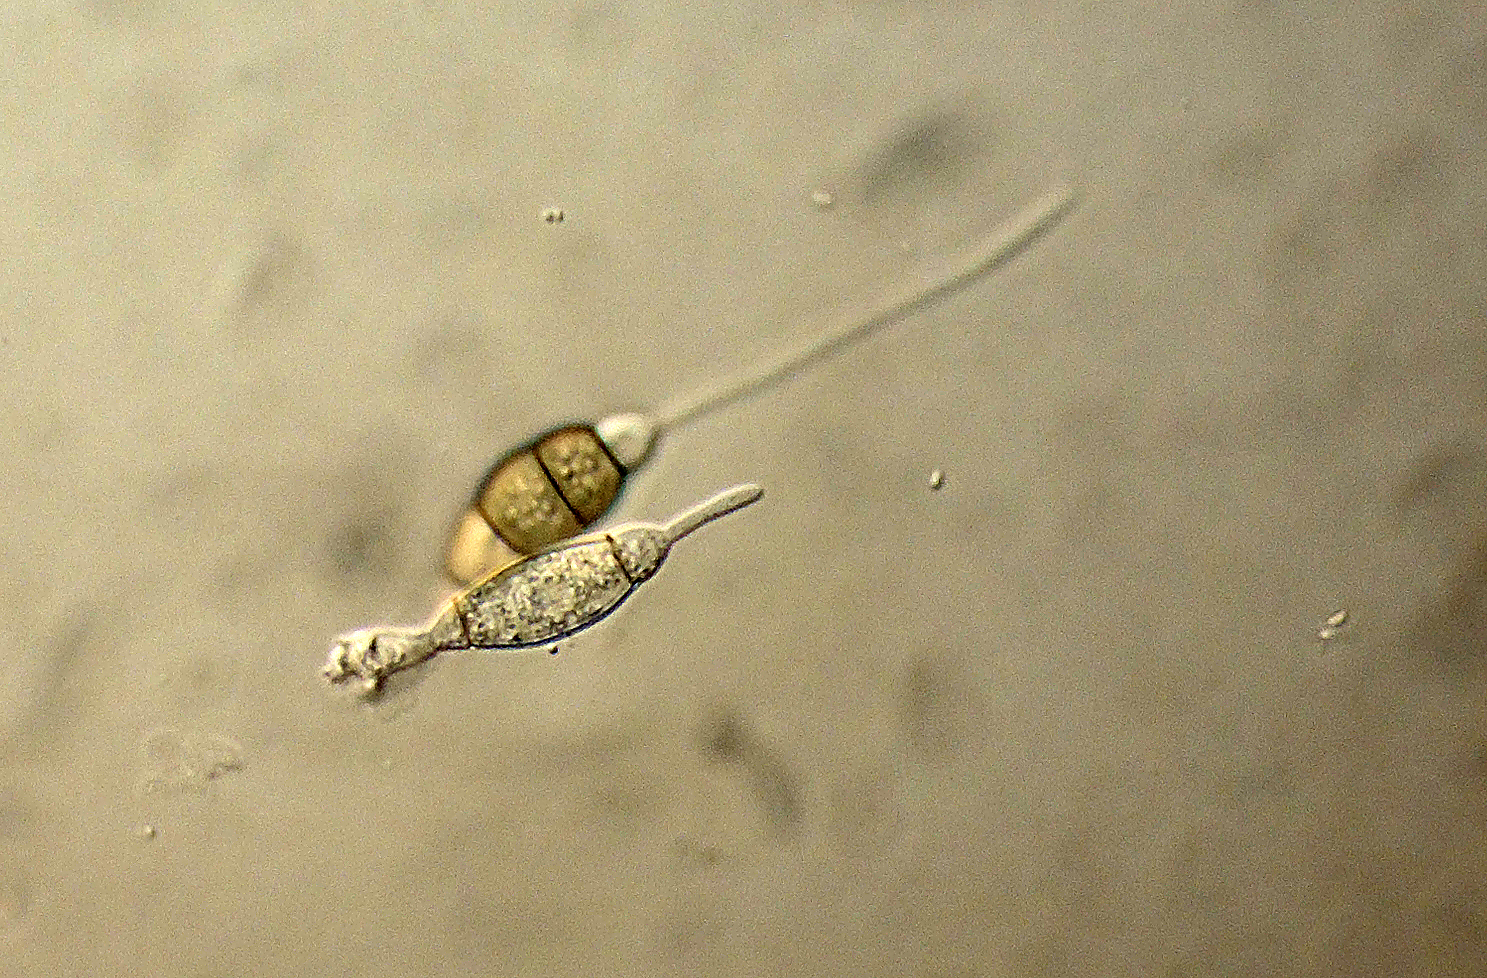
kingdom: Fungi
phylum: Ascomycota
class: Sordariomycetes
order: Amphisphaeriales
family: Amphisphaeriaceae
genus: Monochaetia
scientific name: Monochaetia cryptomeriae
